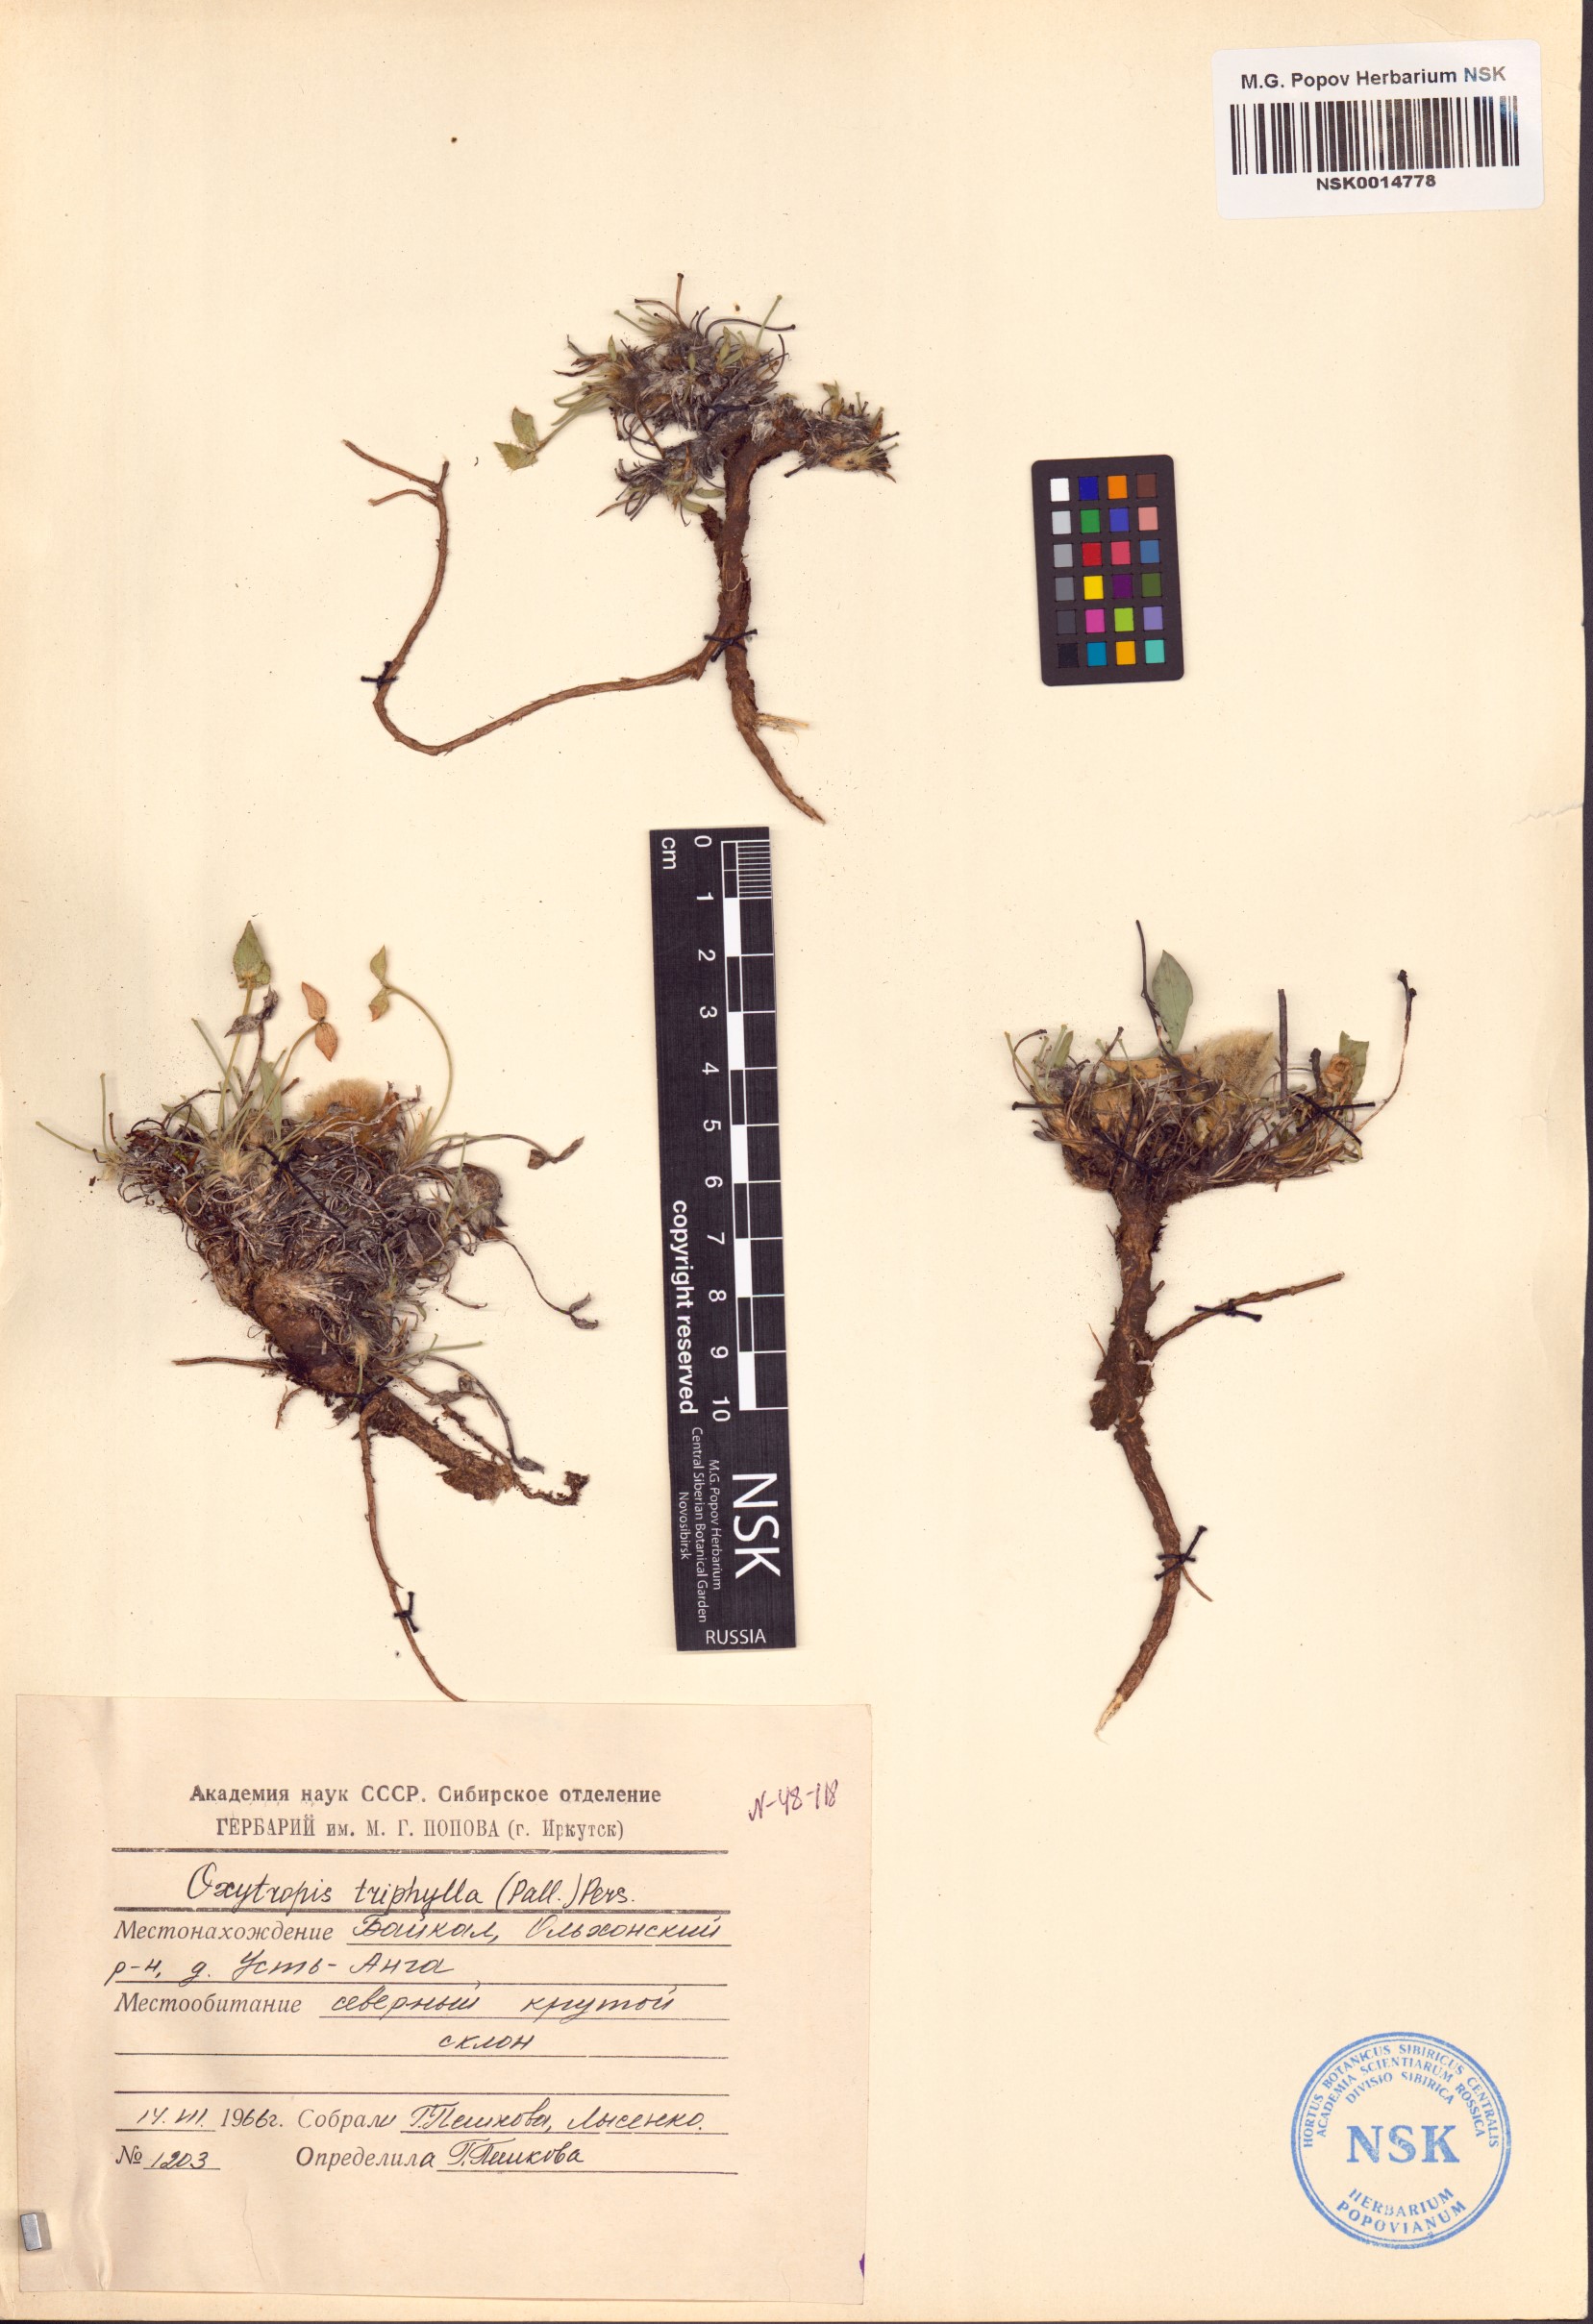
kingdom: Plantae
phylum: Tracheophyta
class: Magnoliopsida
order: Fabales
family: Fabaceae
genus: Oxytropis
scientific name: Oxytropis triphylla
